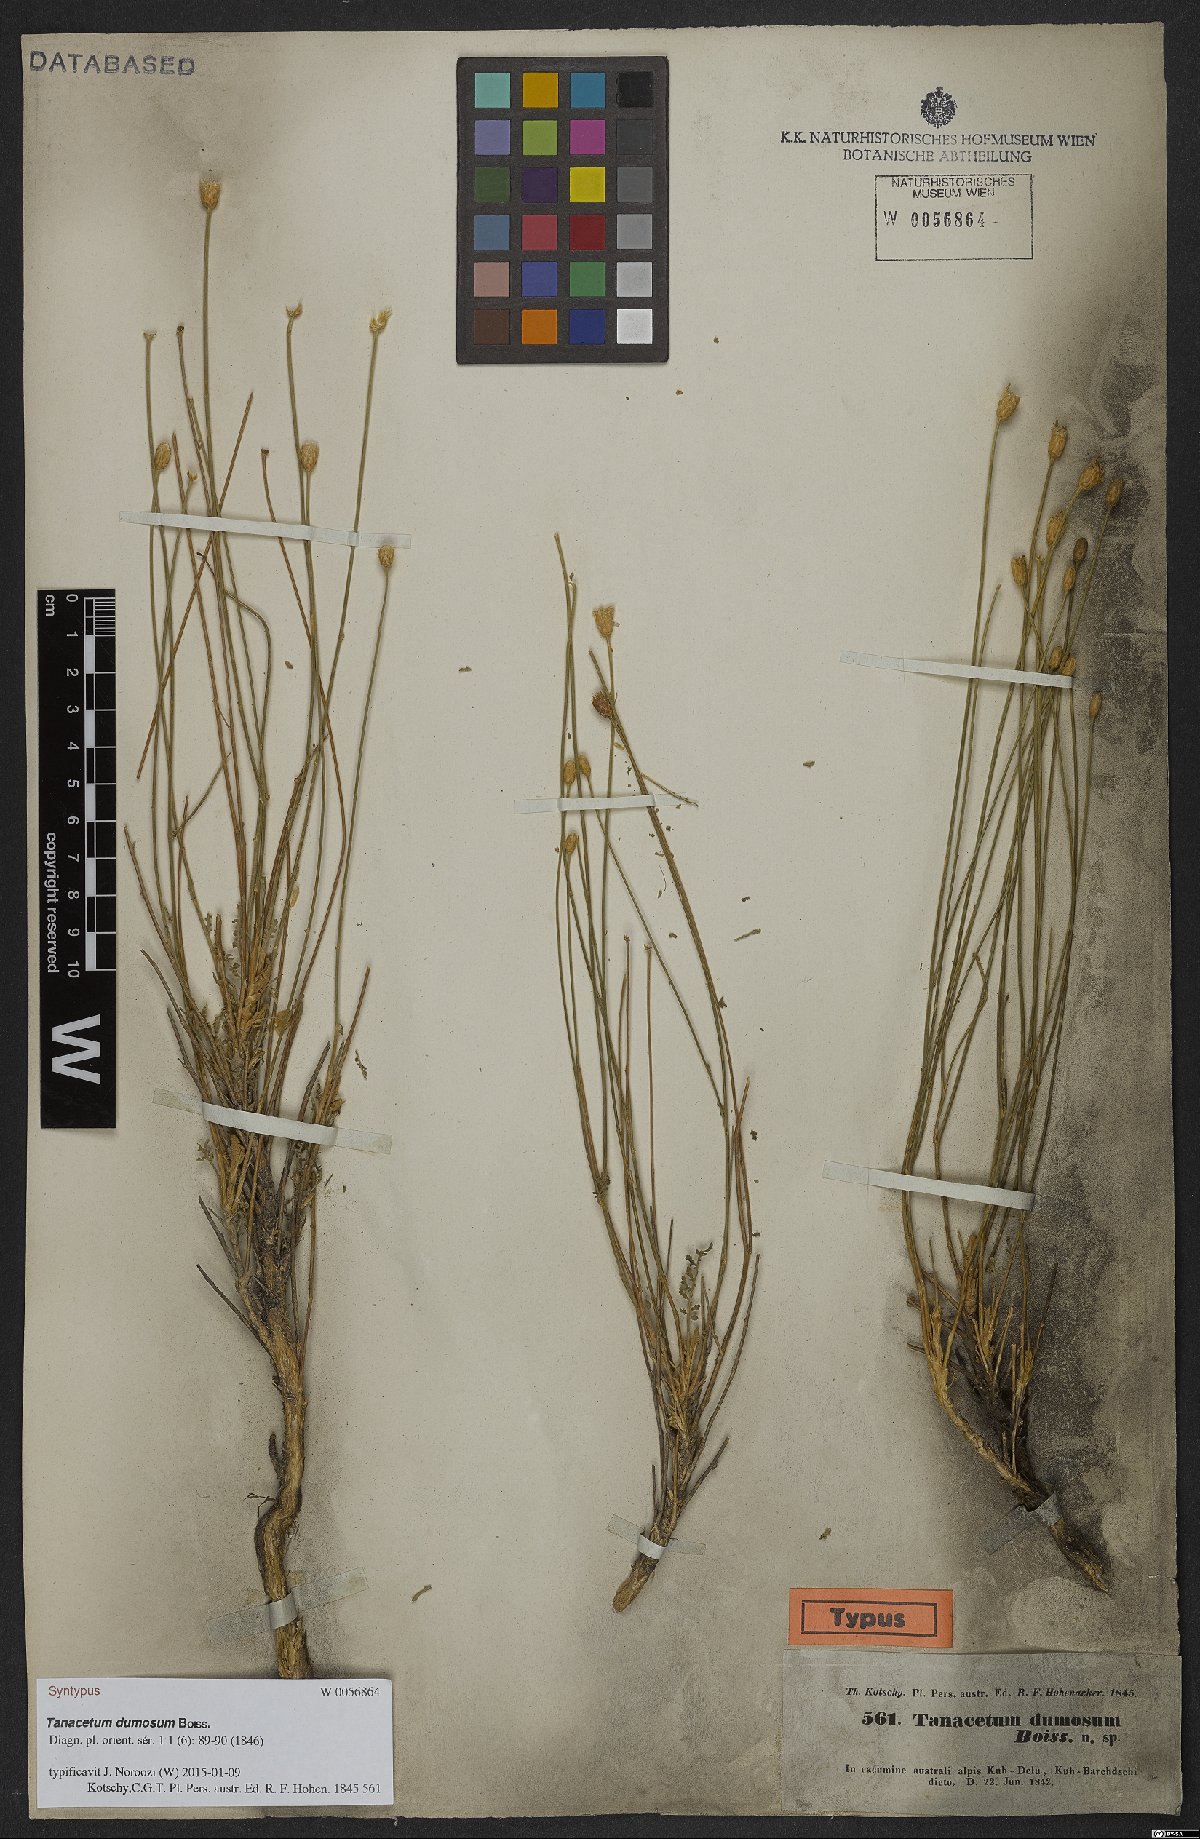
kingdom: Plantae
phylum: Tracheophyta
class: Magnoliopsida
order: Asterales
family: Asteraceae
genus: Tanacetum
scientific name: Tanacetum dumosum
